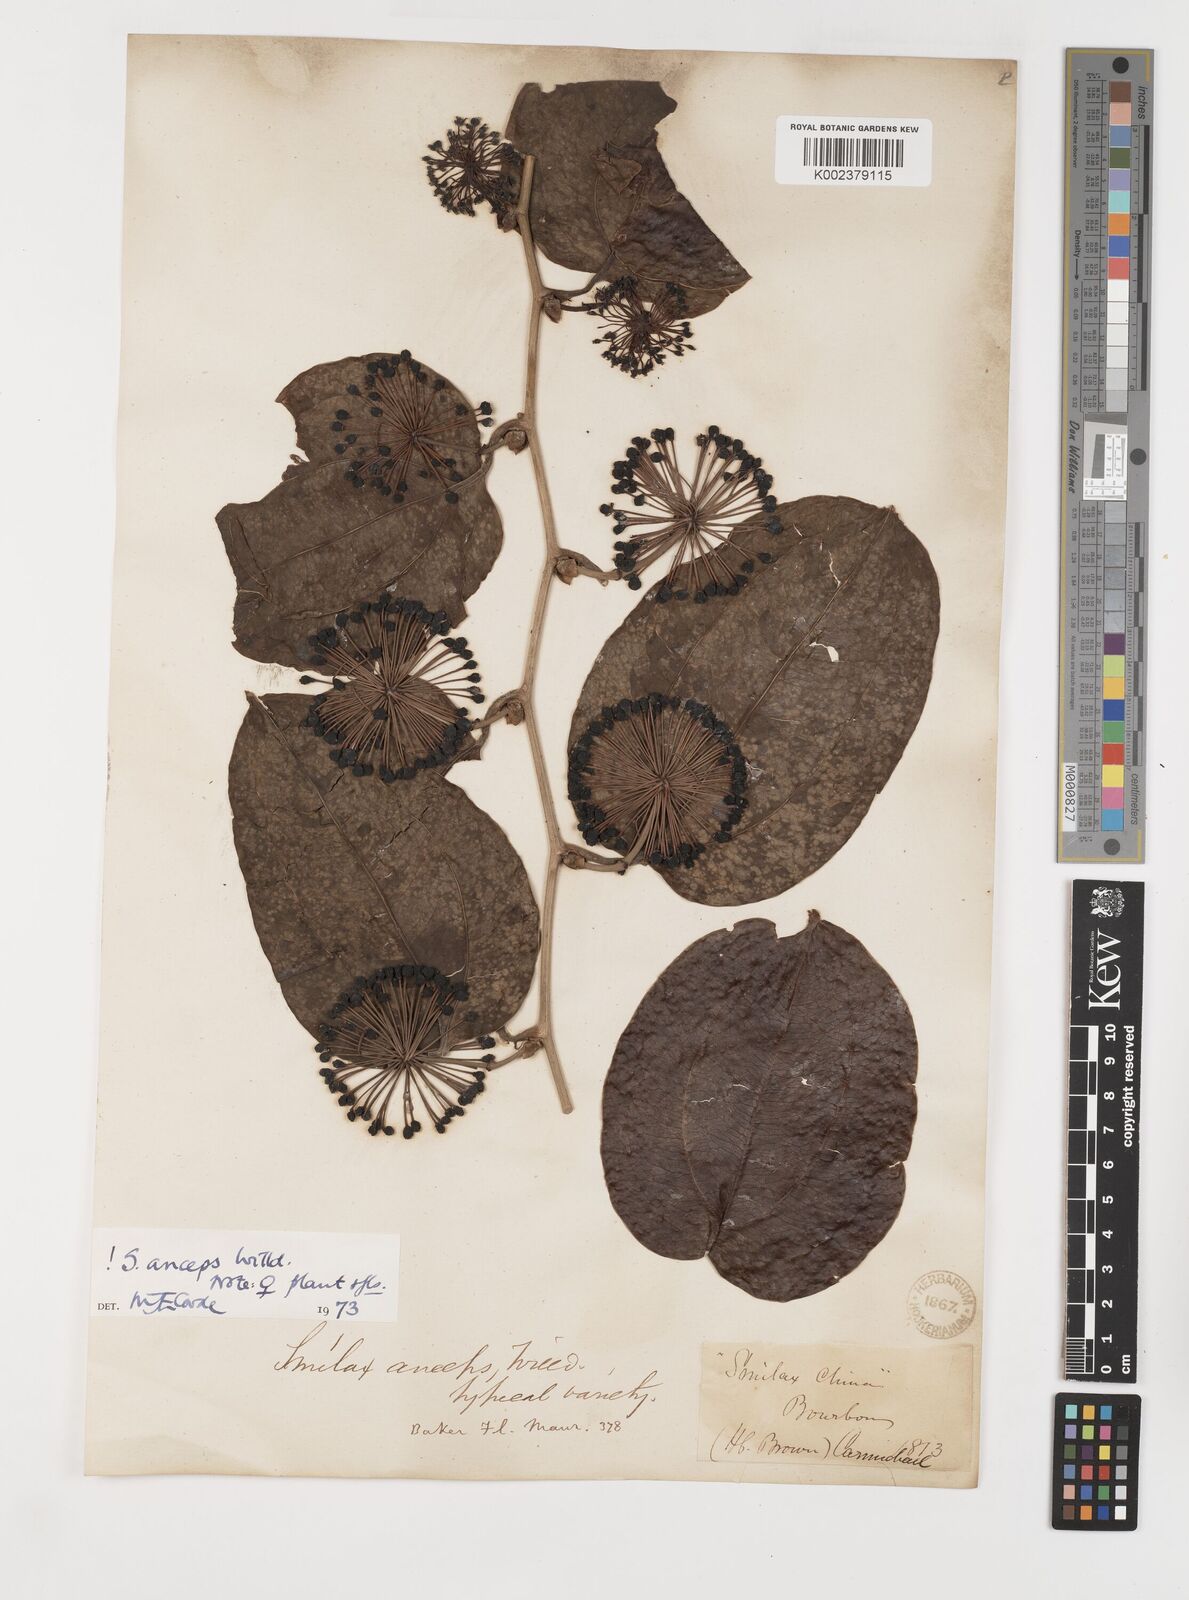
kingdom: Plantae
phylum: Tracheophyta
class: Liliopsida
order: Liliales
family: Smilacaceae
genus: Smilax
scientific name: Smilax anceps
